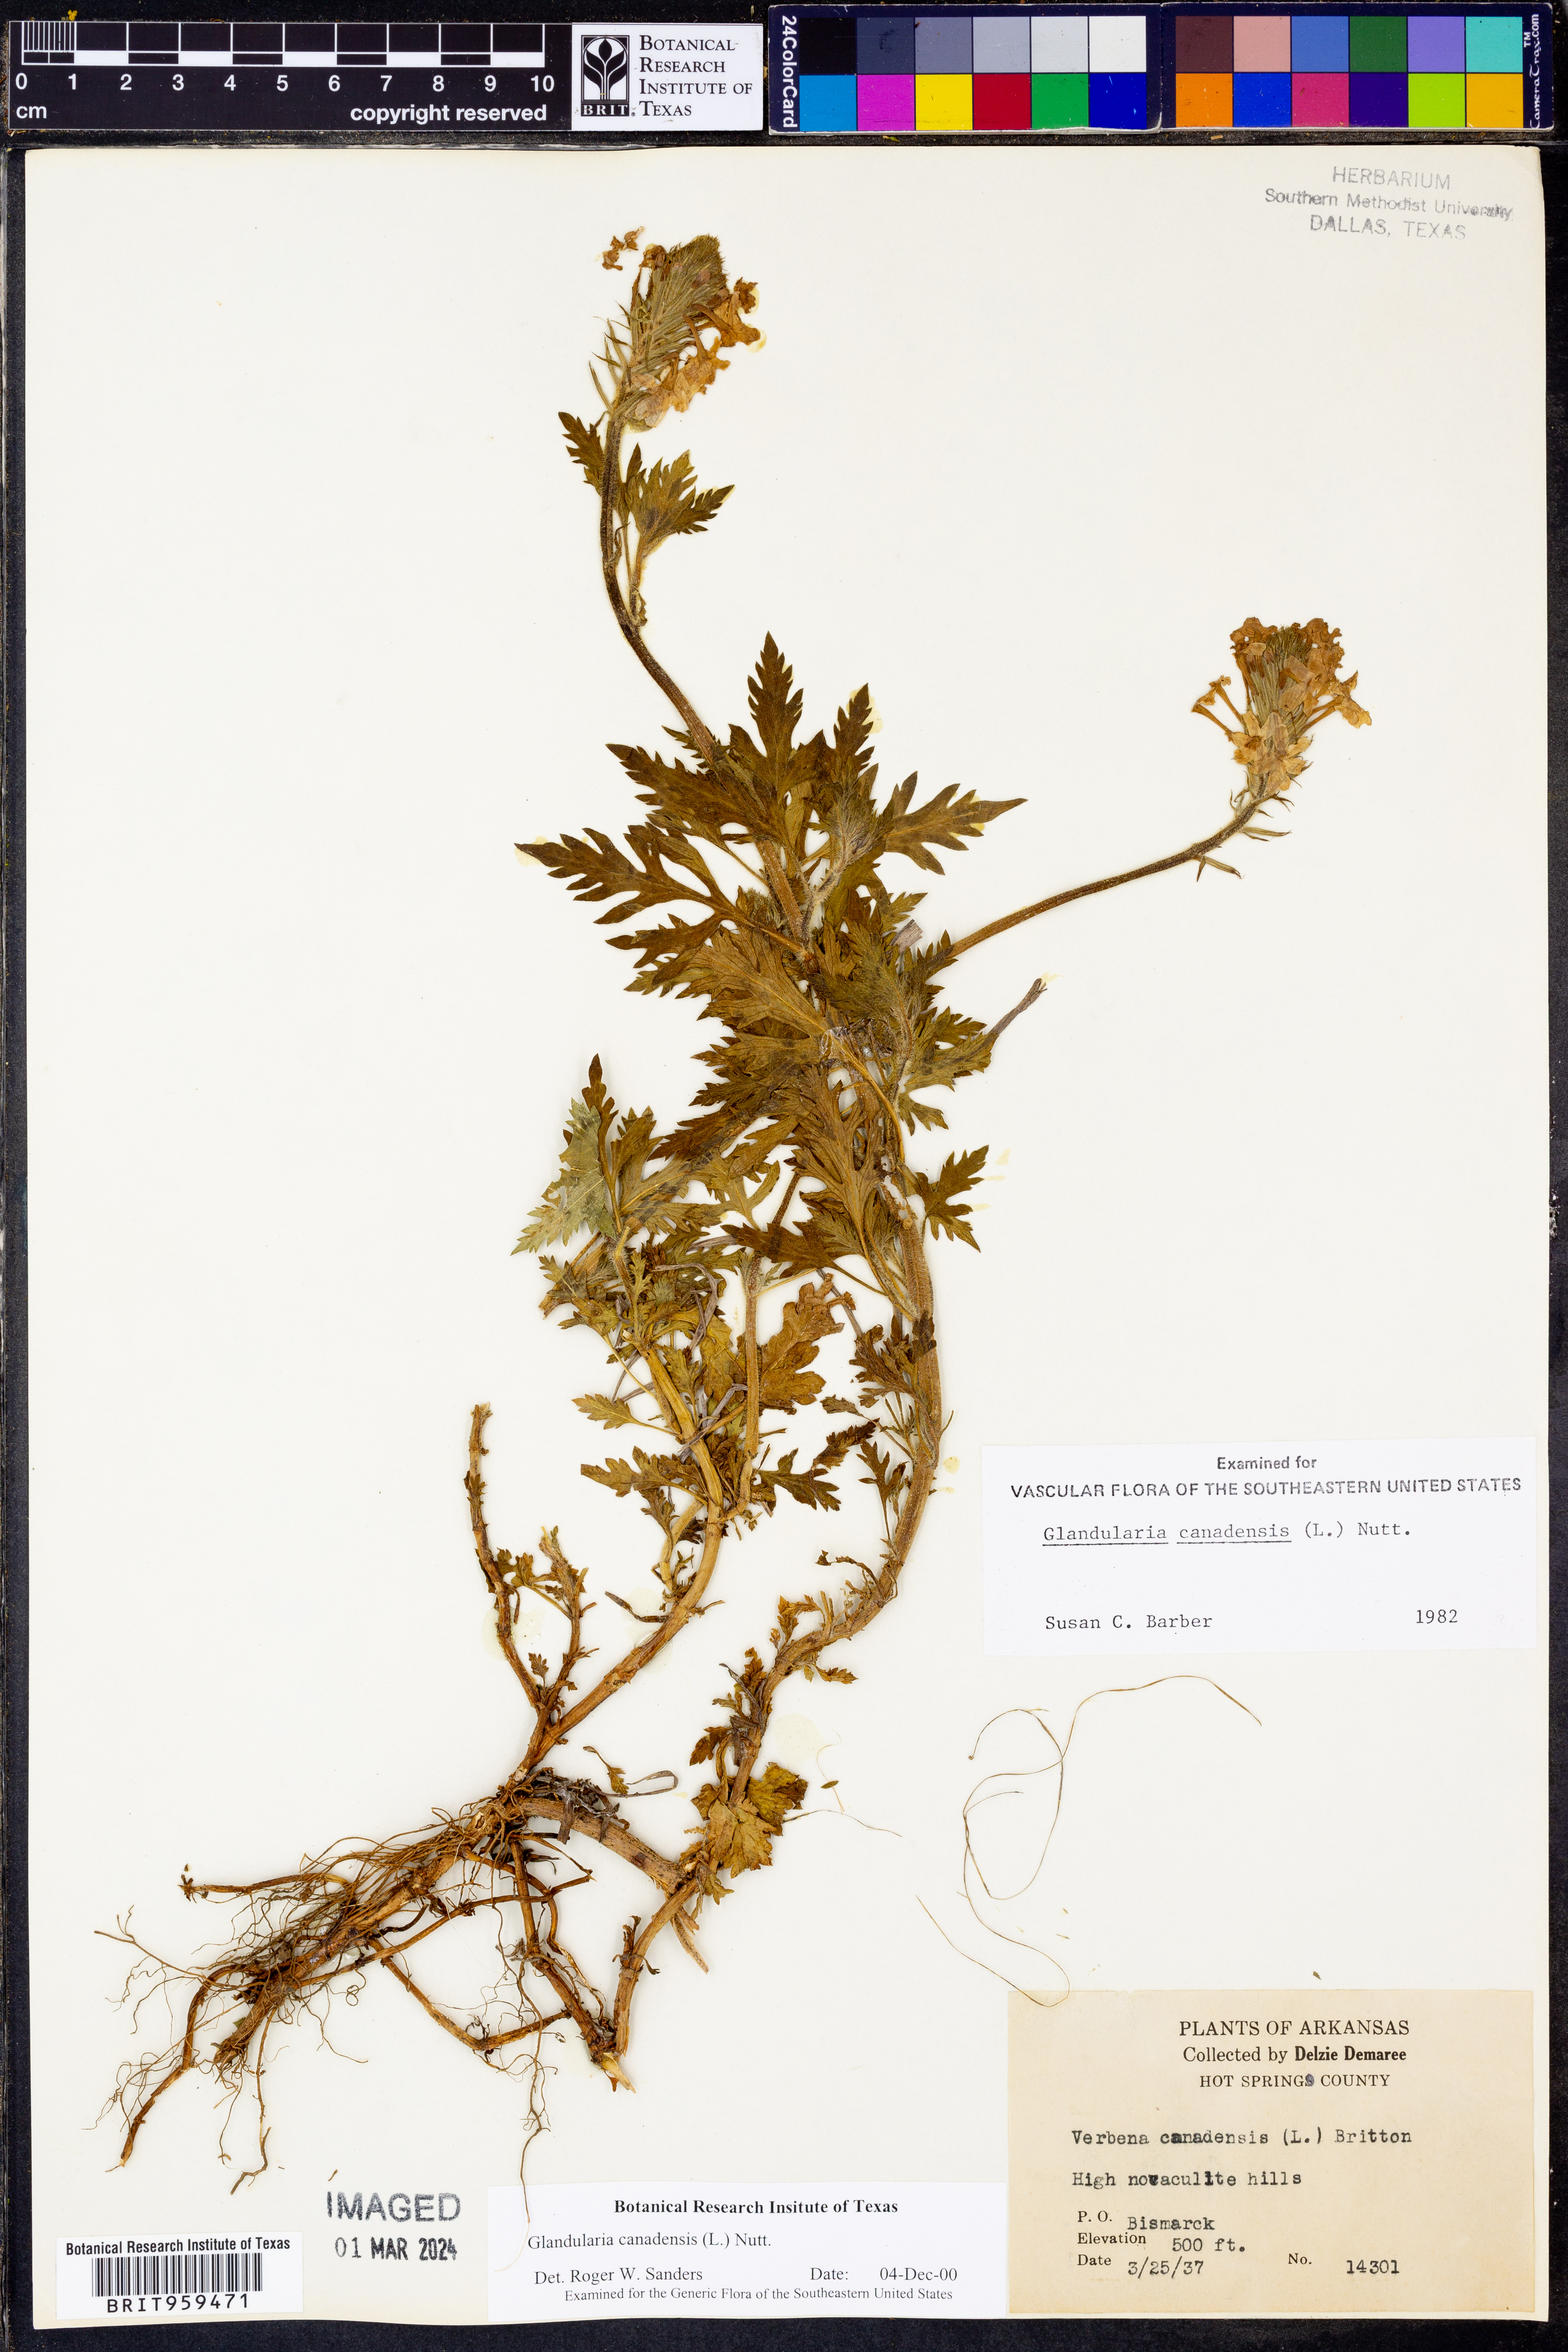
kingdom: Plantae
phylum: Tracheophyta
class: Magnoliopsida
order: Lamiales
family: Verbenaceae
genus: Verbena
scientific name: Verbena canadensis
